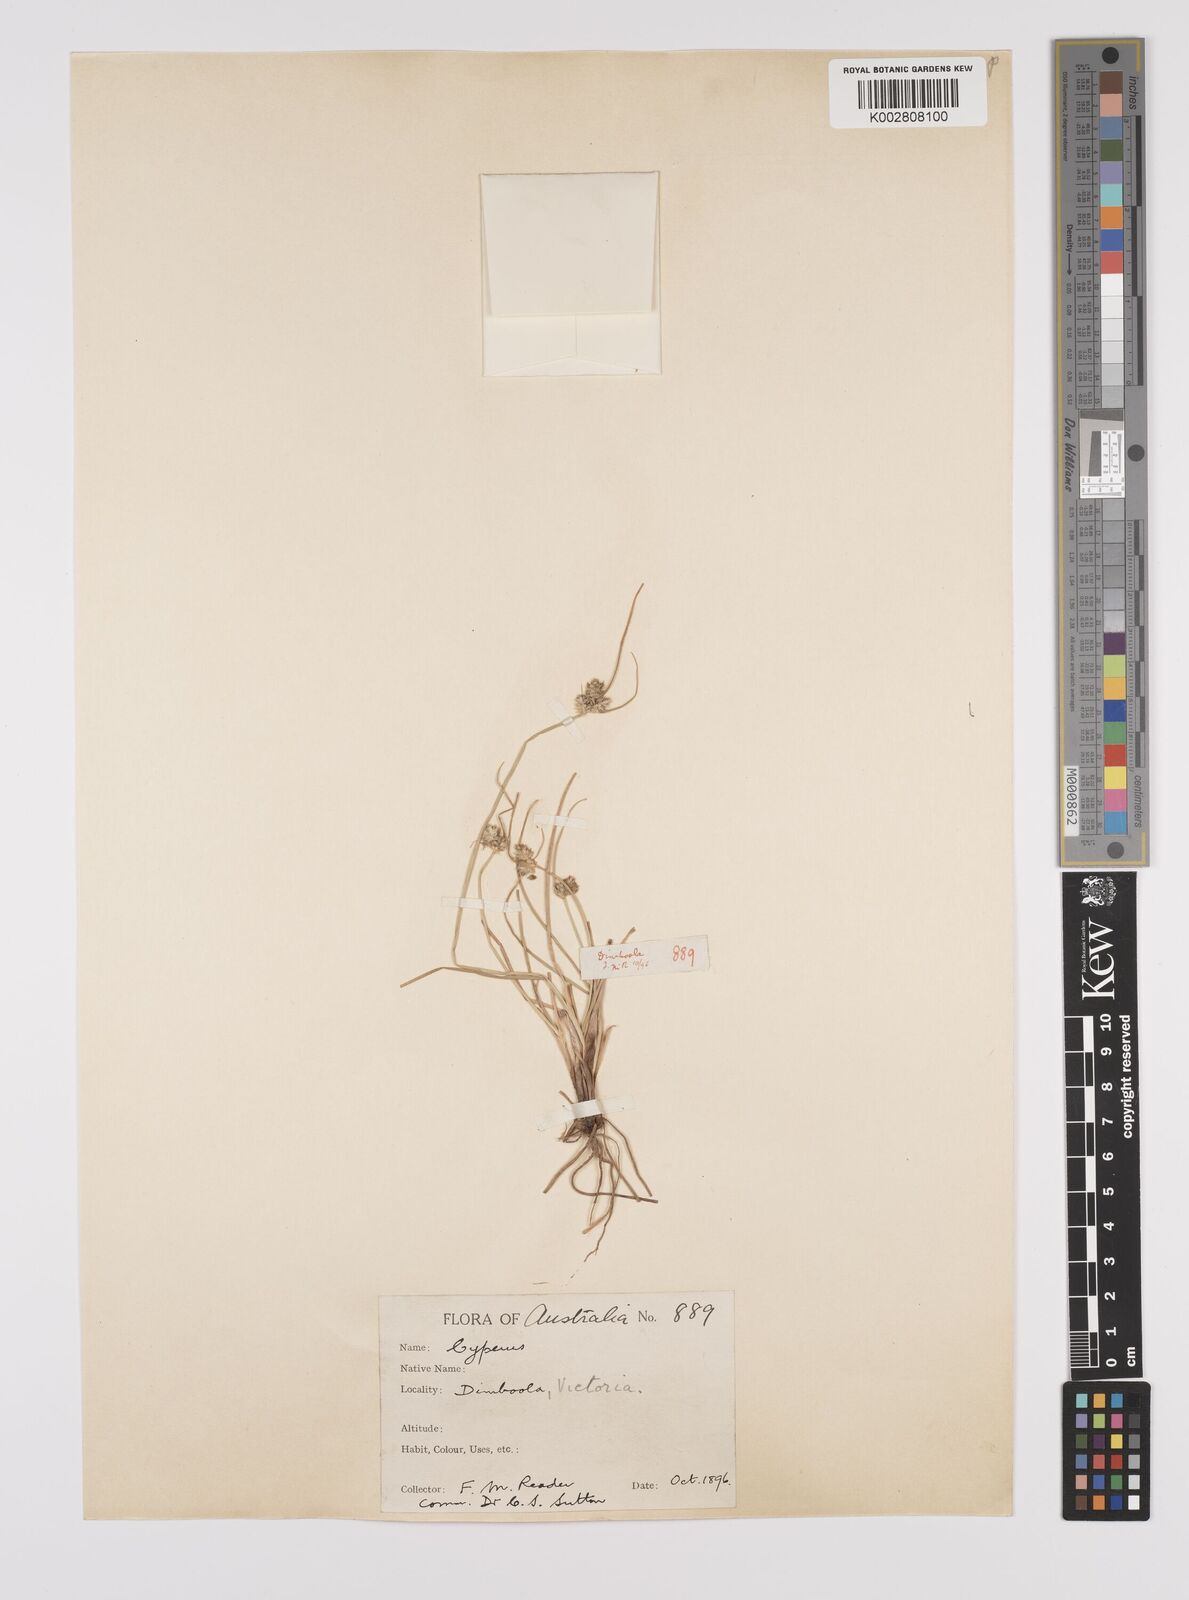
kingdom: Plantae
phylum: Tracheophyta
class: Liliopsida
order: Poales
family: Cyperaceae
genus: Carex
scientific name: Carex inversa
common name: Knob sedge
